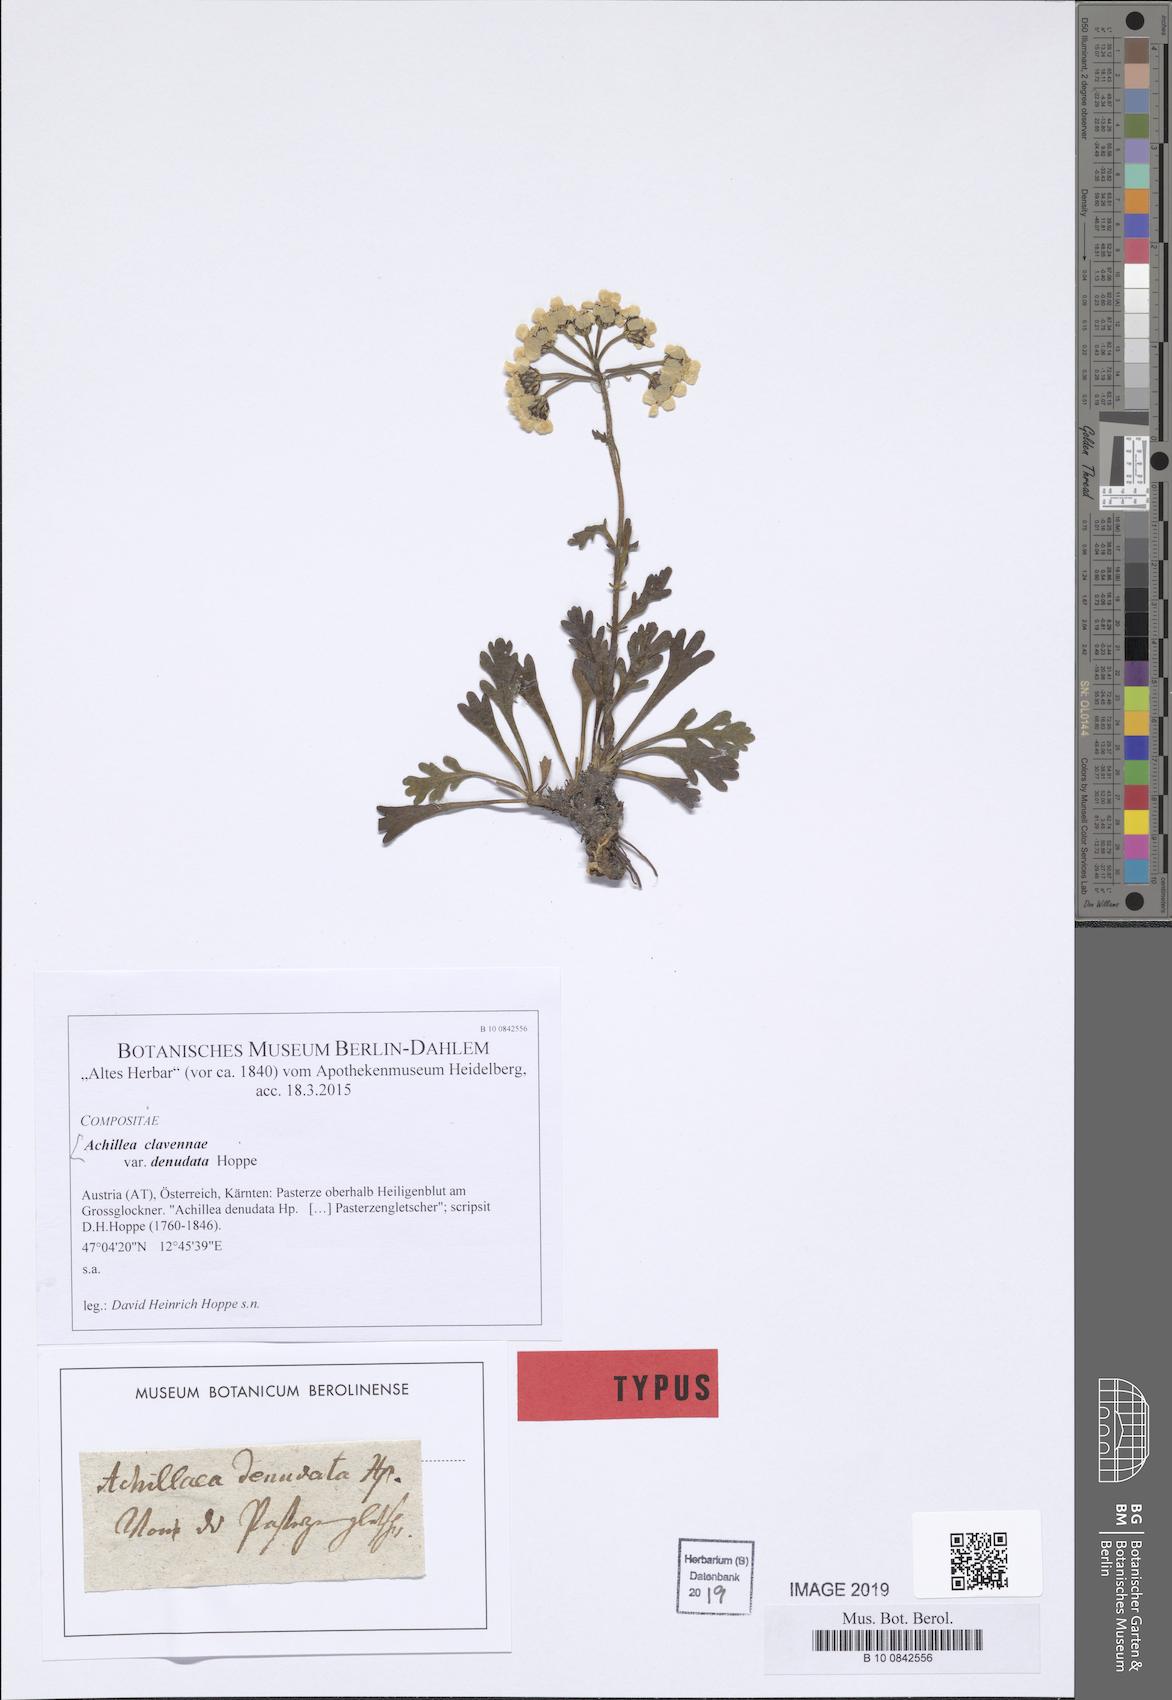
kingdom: Plantae
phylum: Tracheophyta
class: Magnoliopsida
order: Asterales
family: Asteraceae
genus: Achillea
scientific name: Achillea clavennae
